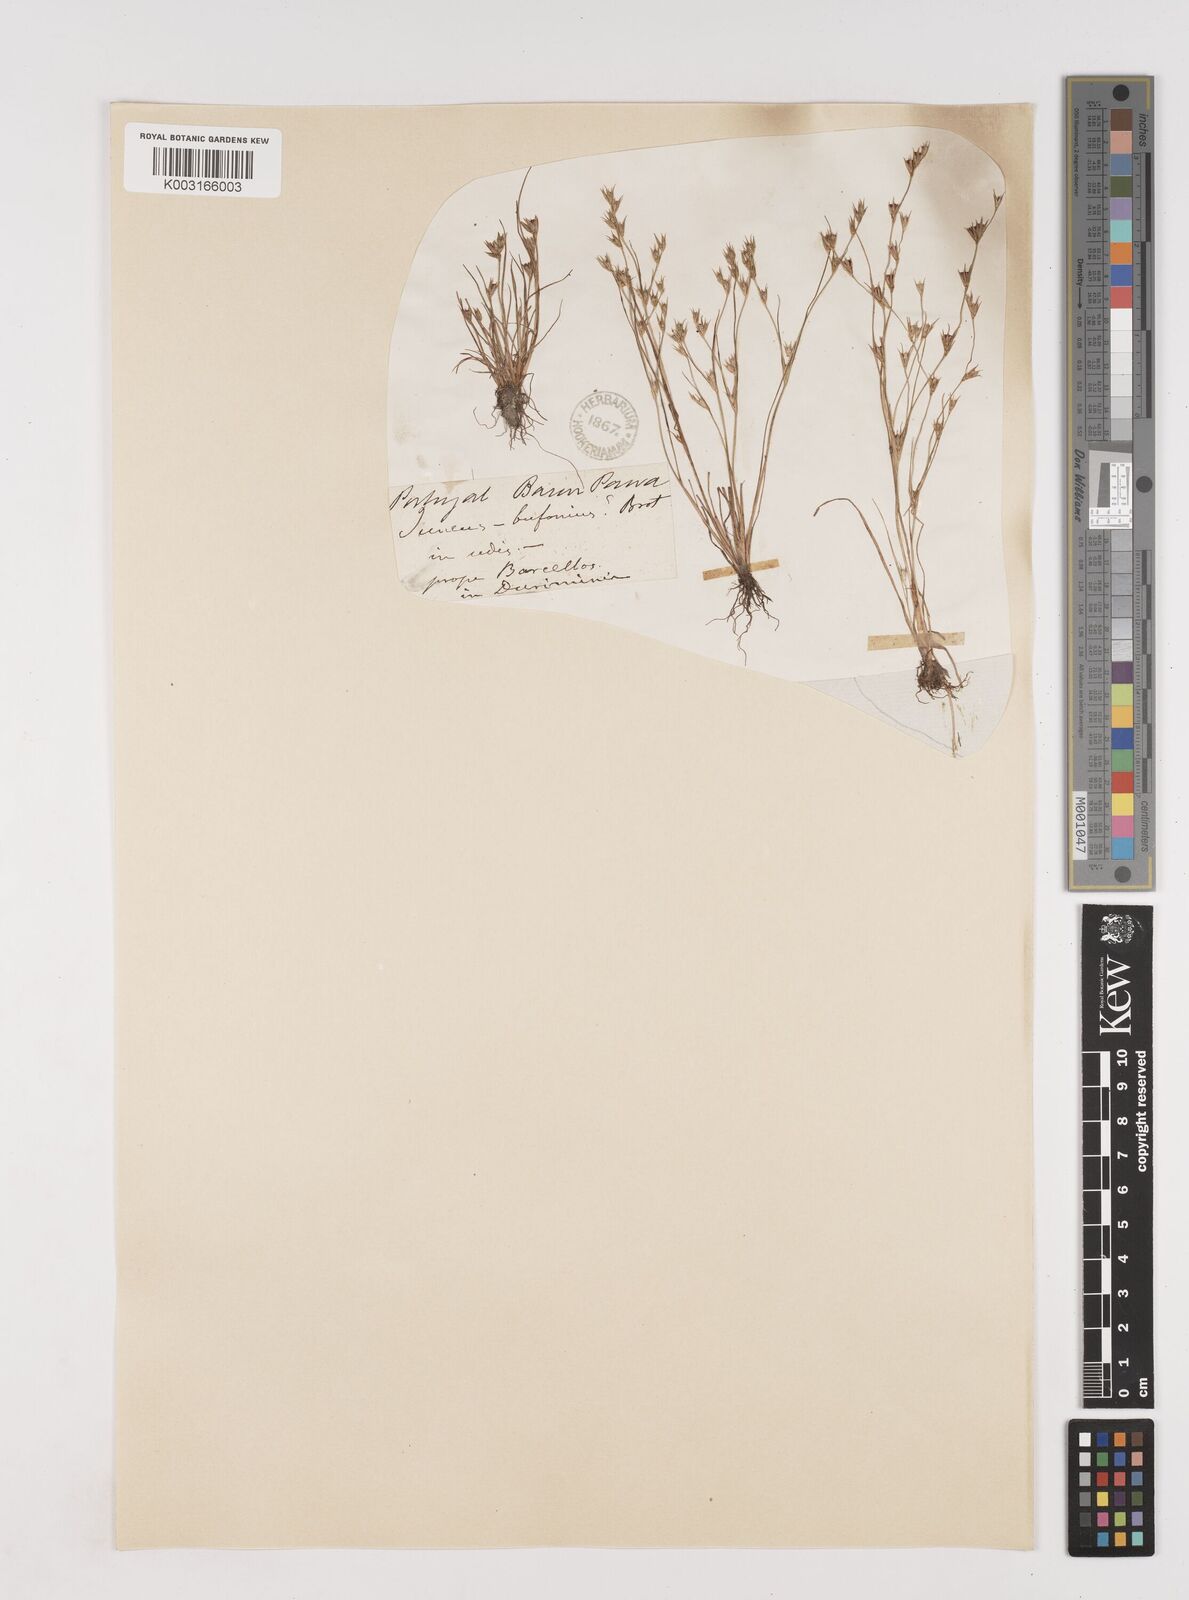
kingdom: Plantae
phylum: Tracheophyta
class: Liliopsida
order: Poales
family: Juncaceae
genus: Juncus
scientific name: Juncus bufonius
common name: Toad rush
